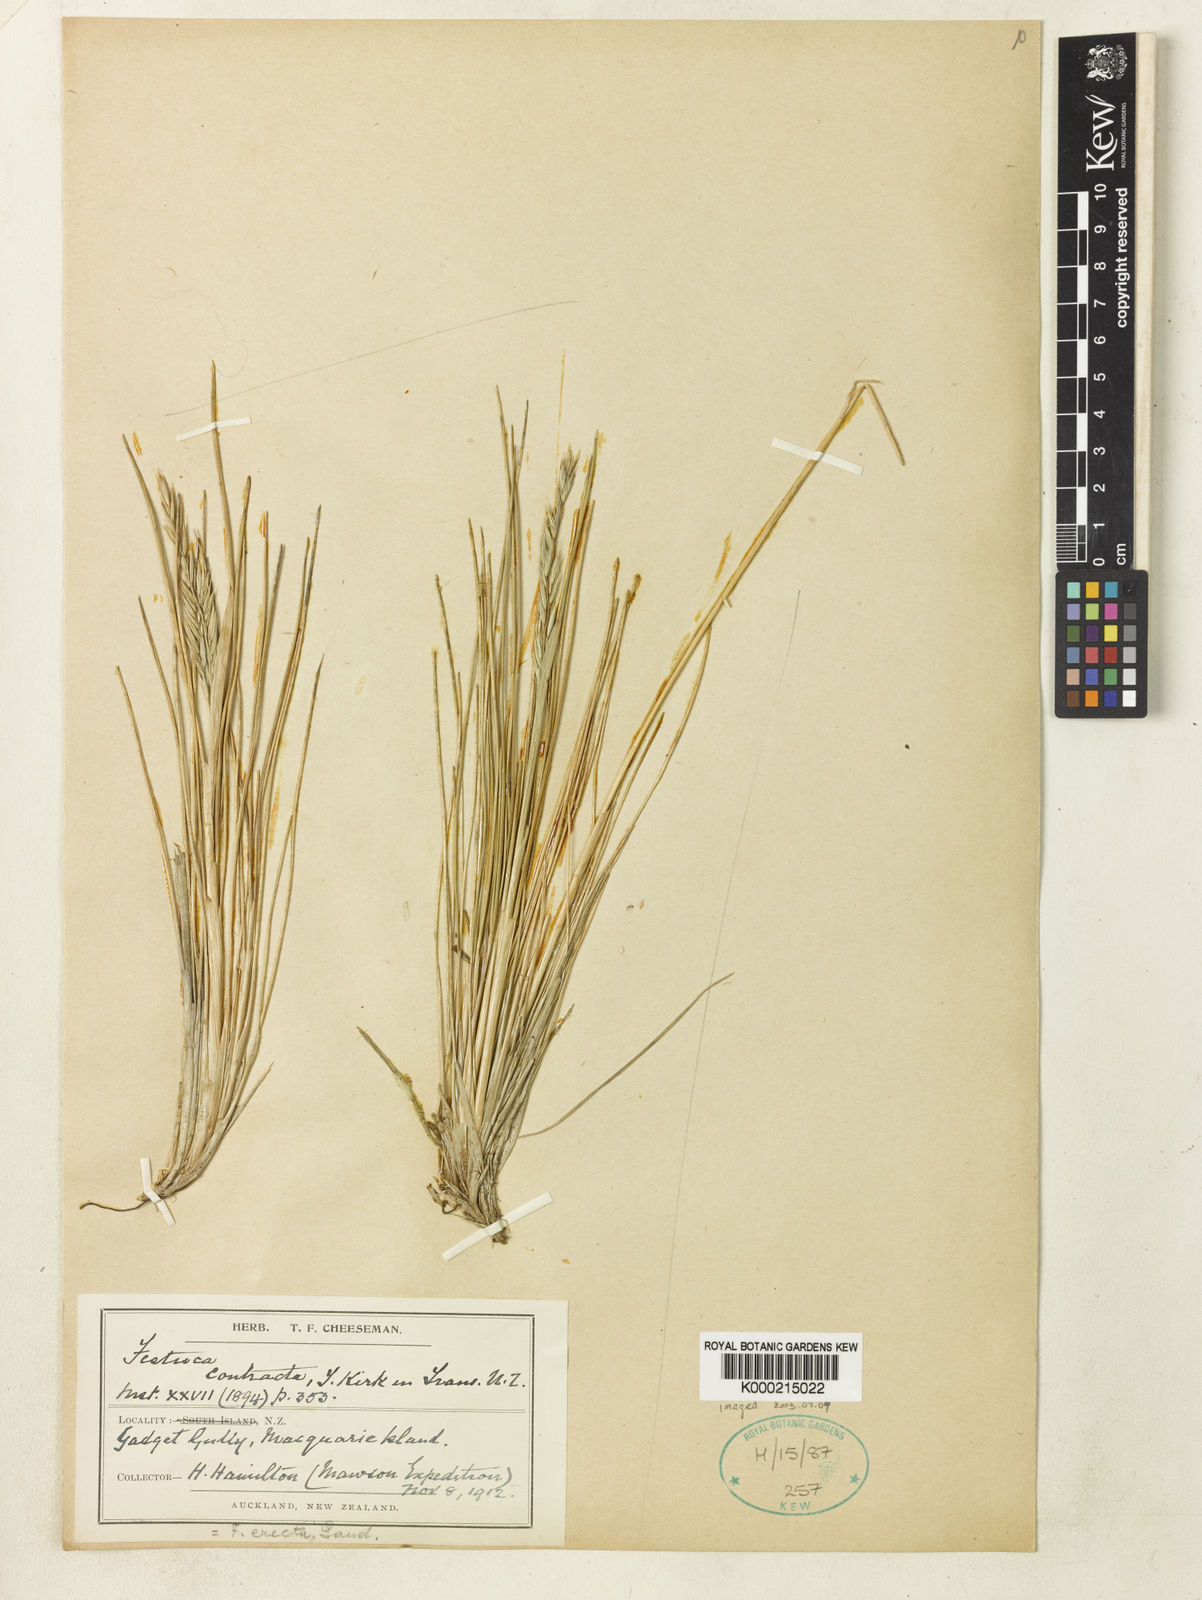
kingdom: Plantae
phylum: Tracheophyta
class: Liliopsida
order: Poales
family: Poaceae
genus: Festuca
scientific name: Festuca contracta
